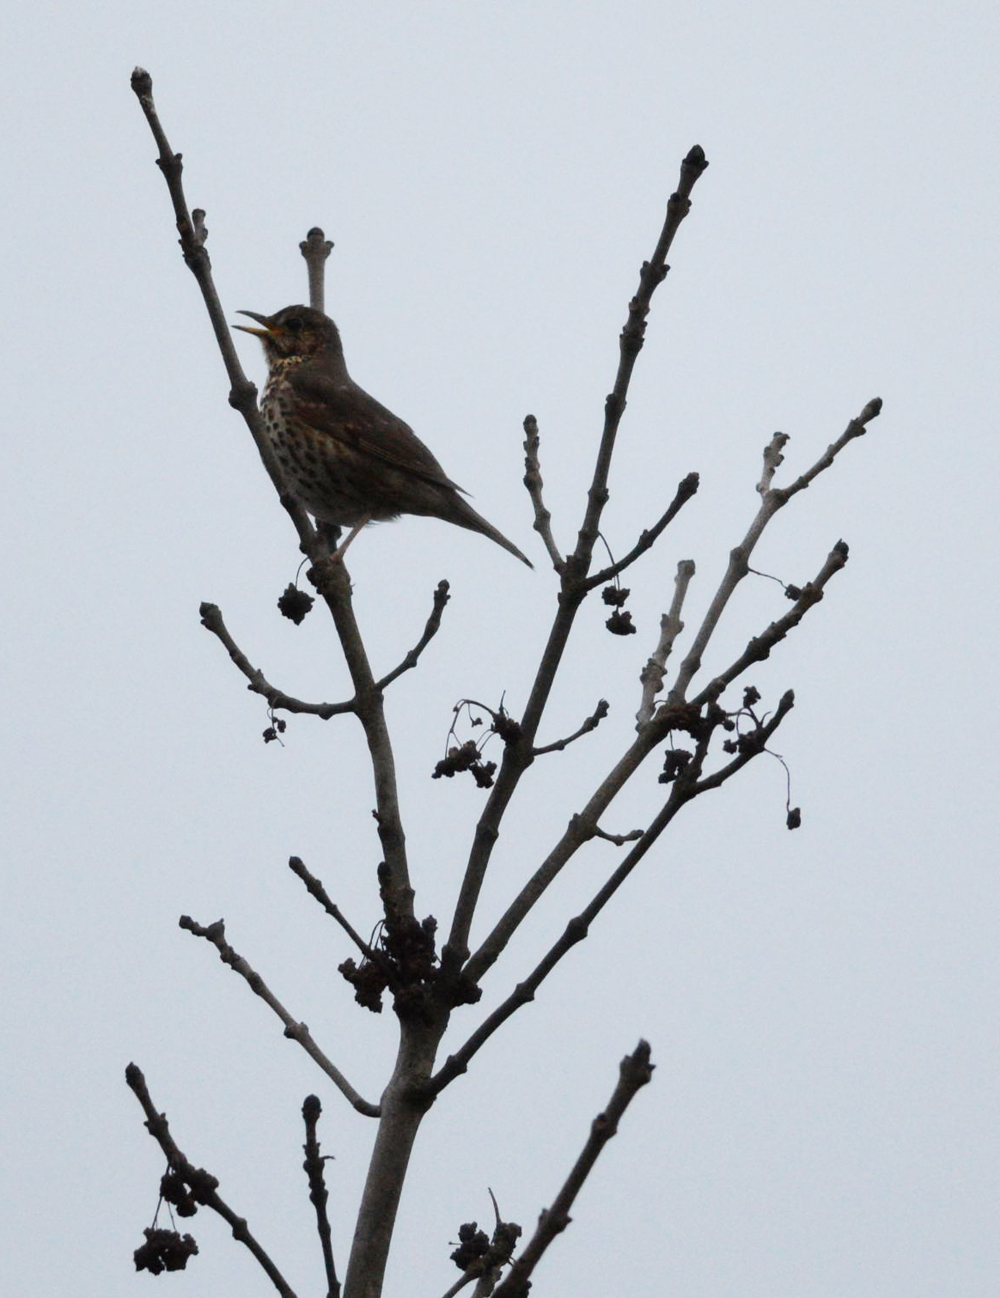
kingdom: Animalia
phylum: Chordata
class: Aves
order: Passeriformes
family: Turdidae
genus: Turdus
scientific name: Turdus philomelos
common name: Song thrush
